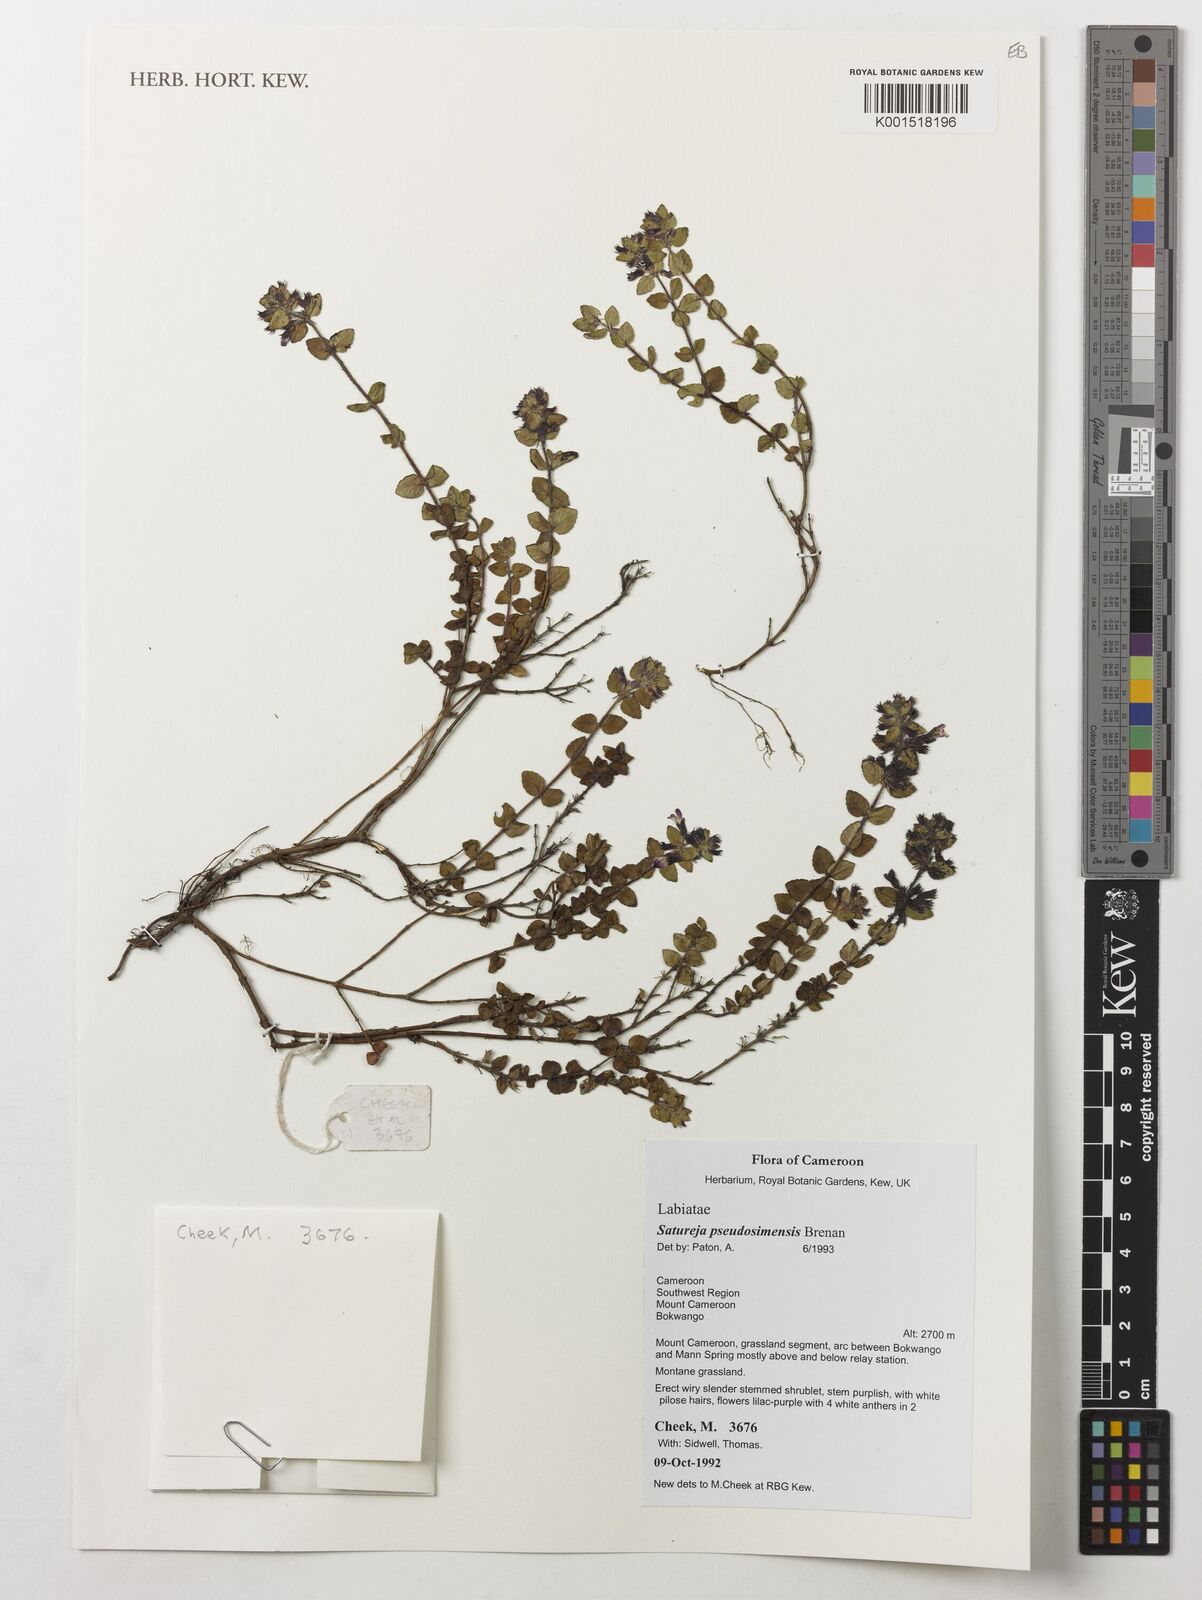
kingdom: Plantae
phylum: Tracheophyta
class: Magnoliopsida
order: Lamiales
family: Lamiaceae
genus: Clinopodium
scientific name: Clinopodium uhligii
